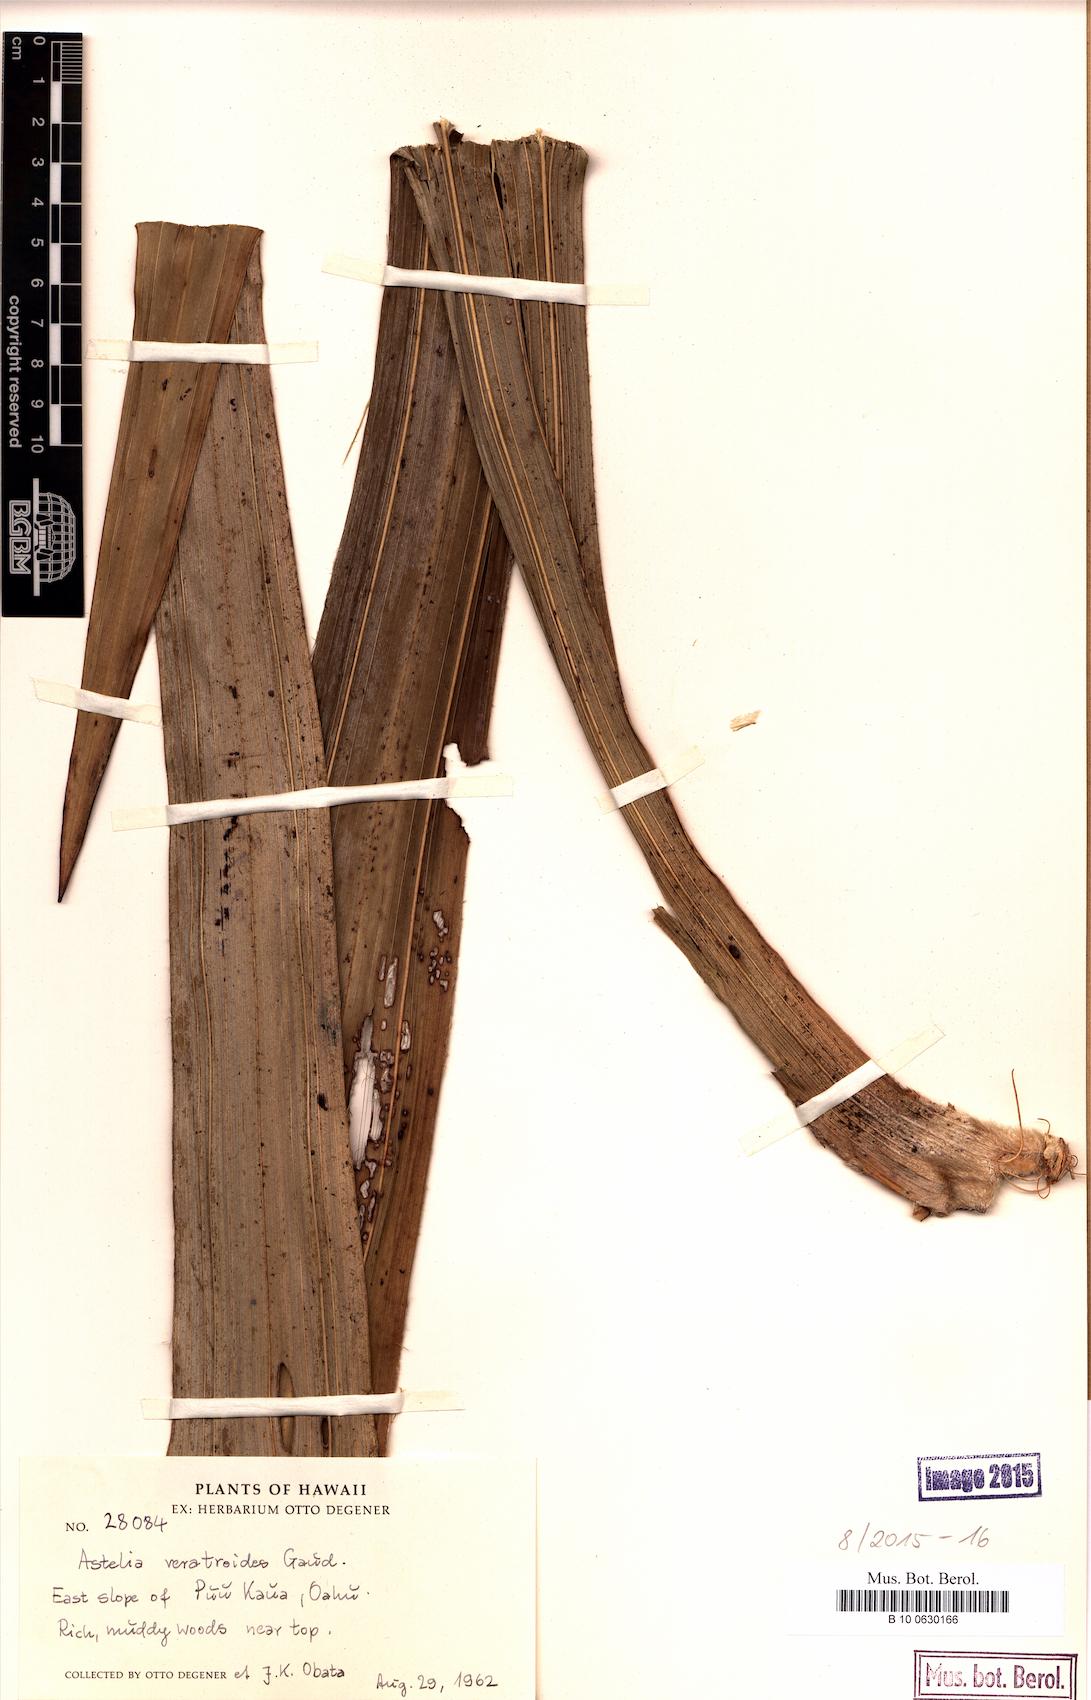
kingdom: Plantae
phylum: Tracheophyta
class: Liliopsida
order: Asparagales
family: Asteliaceae
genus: Astelia
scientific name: Astelia menziesiana
